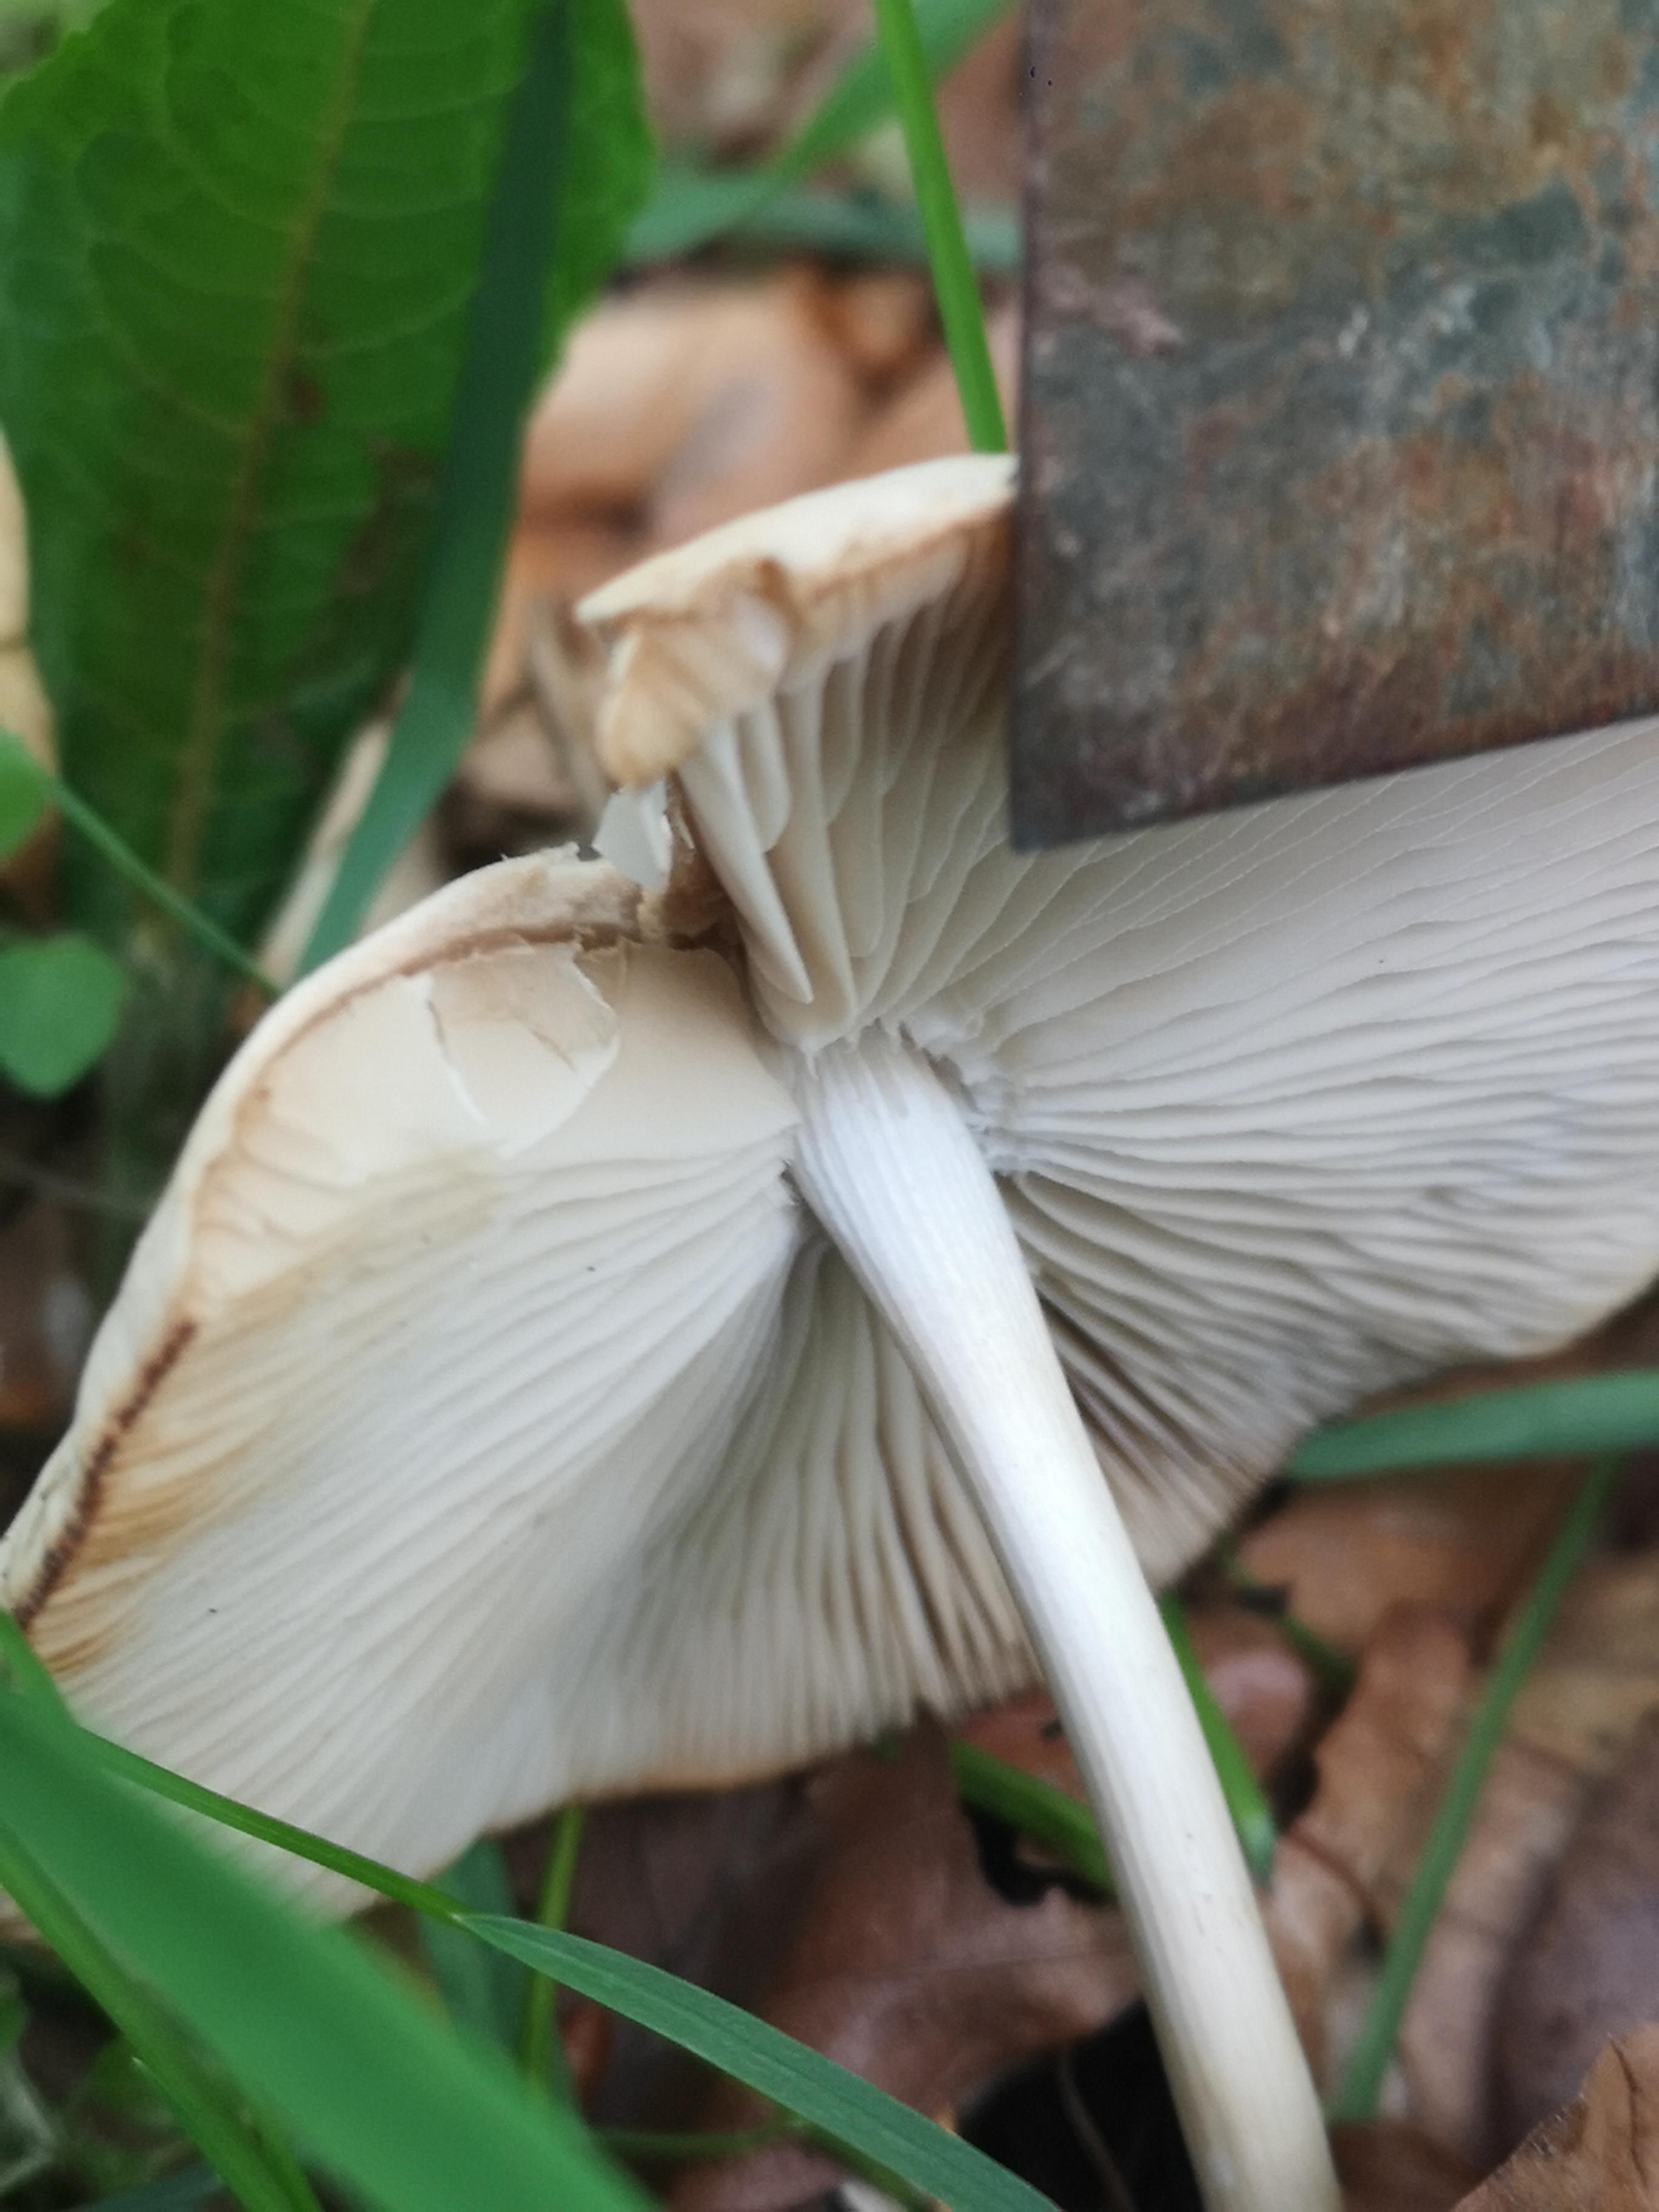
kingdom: Fungi
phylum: Basidiomycota
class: Agaricomycetes
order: Agaricales
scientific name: Agaricales
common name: champignonordenen
